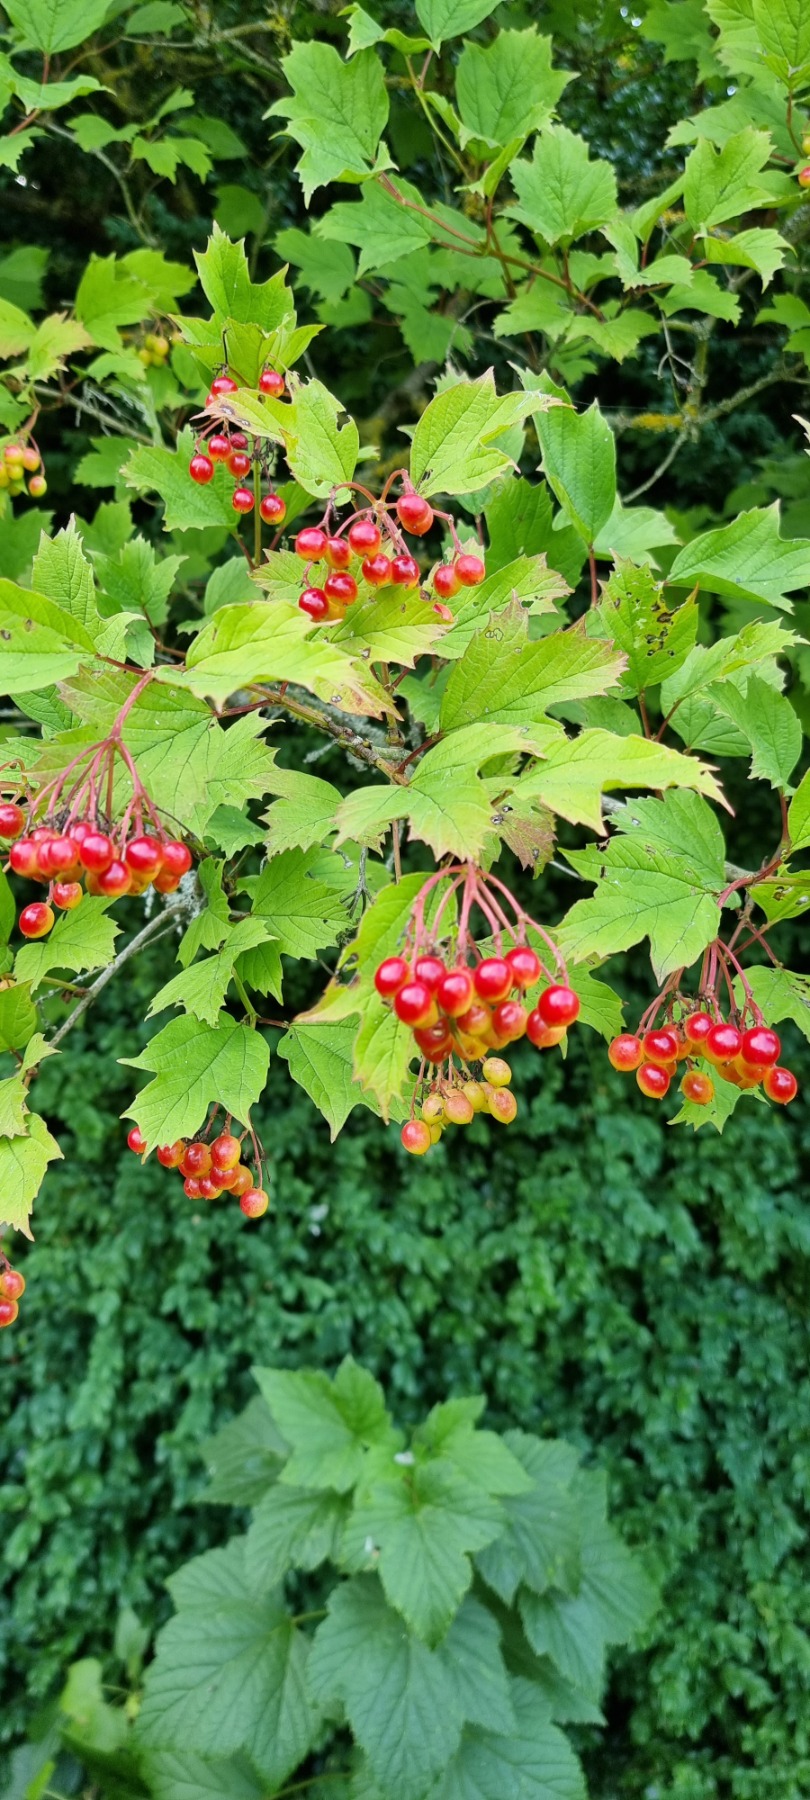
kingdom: Plantae
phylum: Tracheophyta
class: Magnoliopsida
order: Dipsacales
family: Viburnaceae
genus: Viburnum
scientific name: Viburnum opulus
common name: Kvalkved
